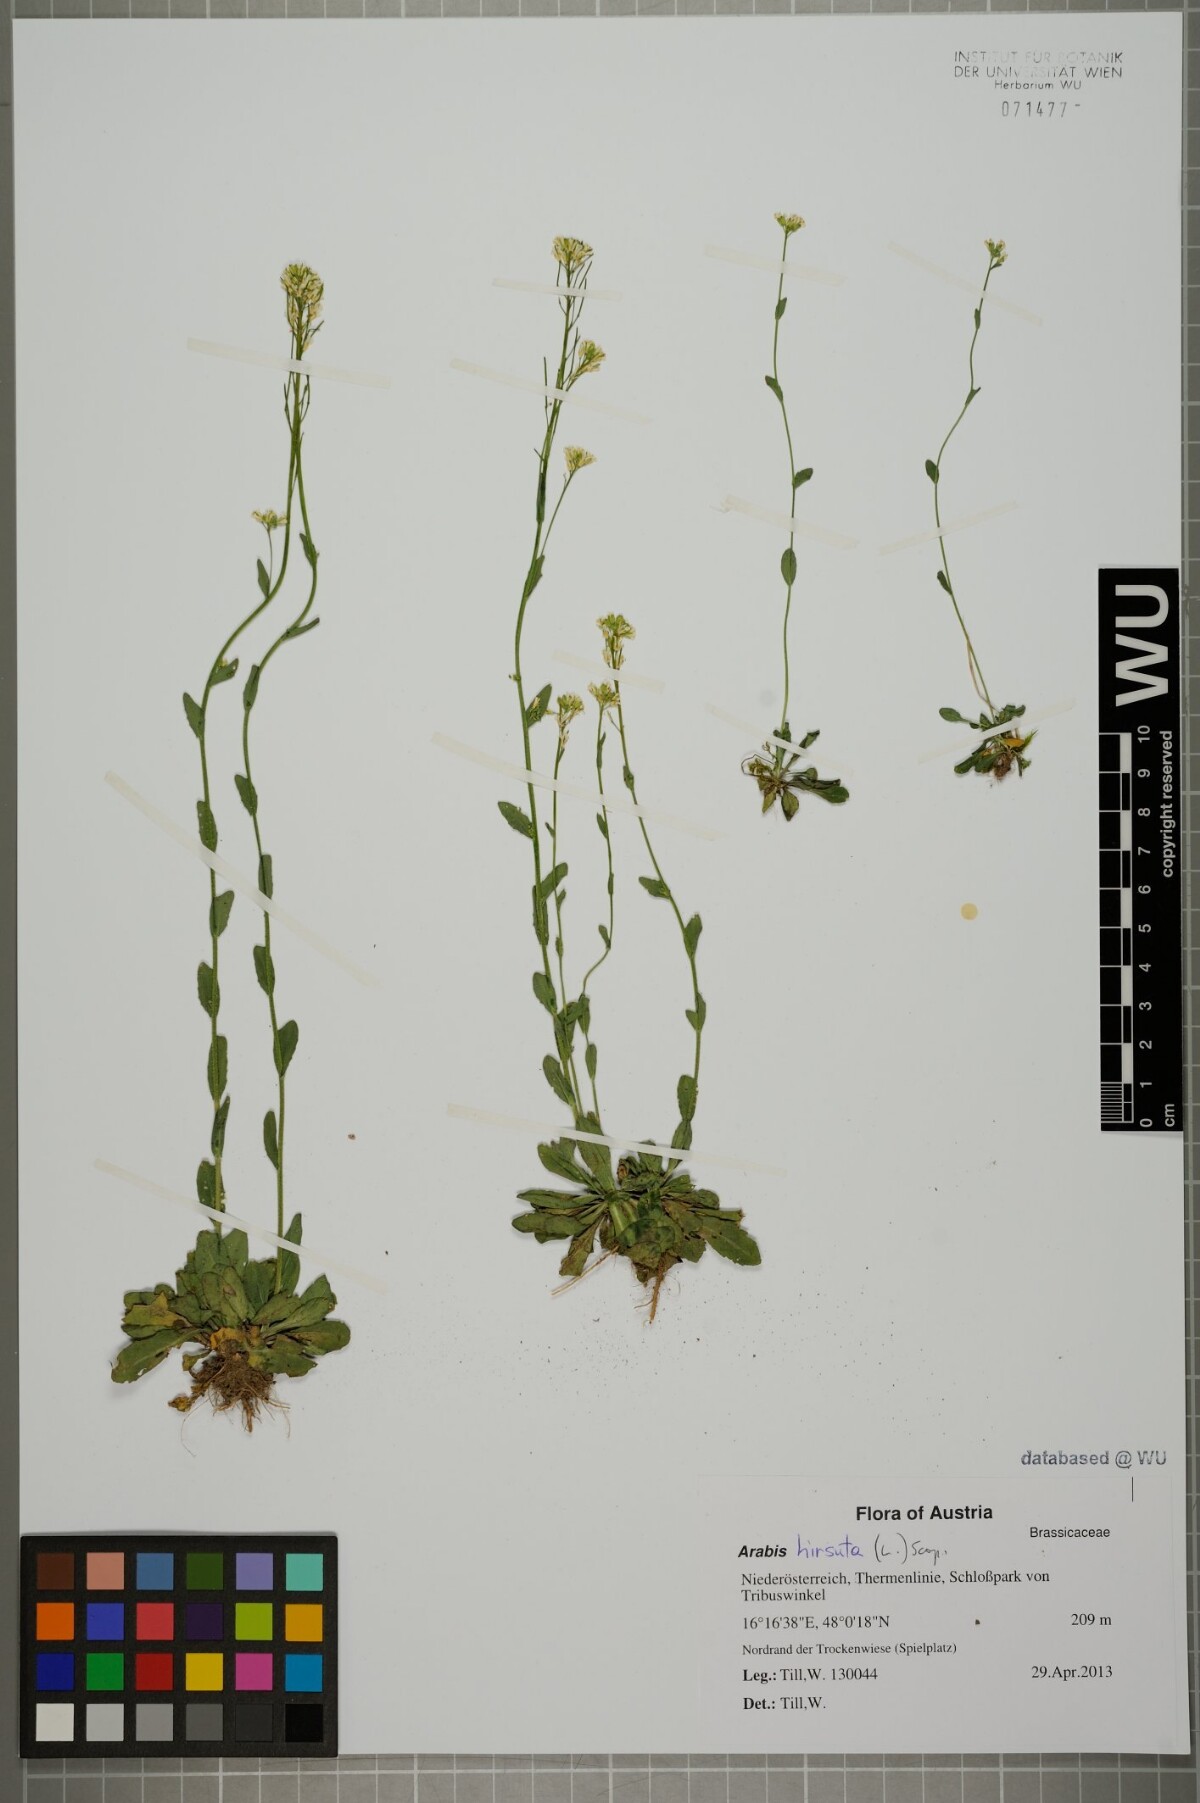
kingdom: Plantae
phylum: Tracheophyta
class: Magnoliopsida
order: Brassicales
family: Brassicaceae
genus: Arabis
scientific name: Arabis hirsuta
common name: Hairy rock-cress
